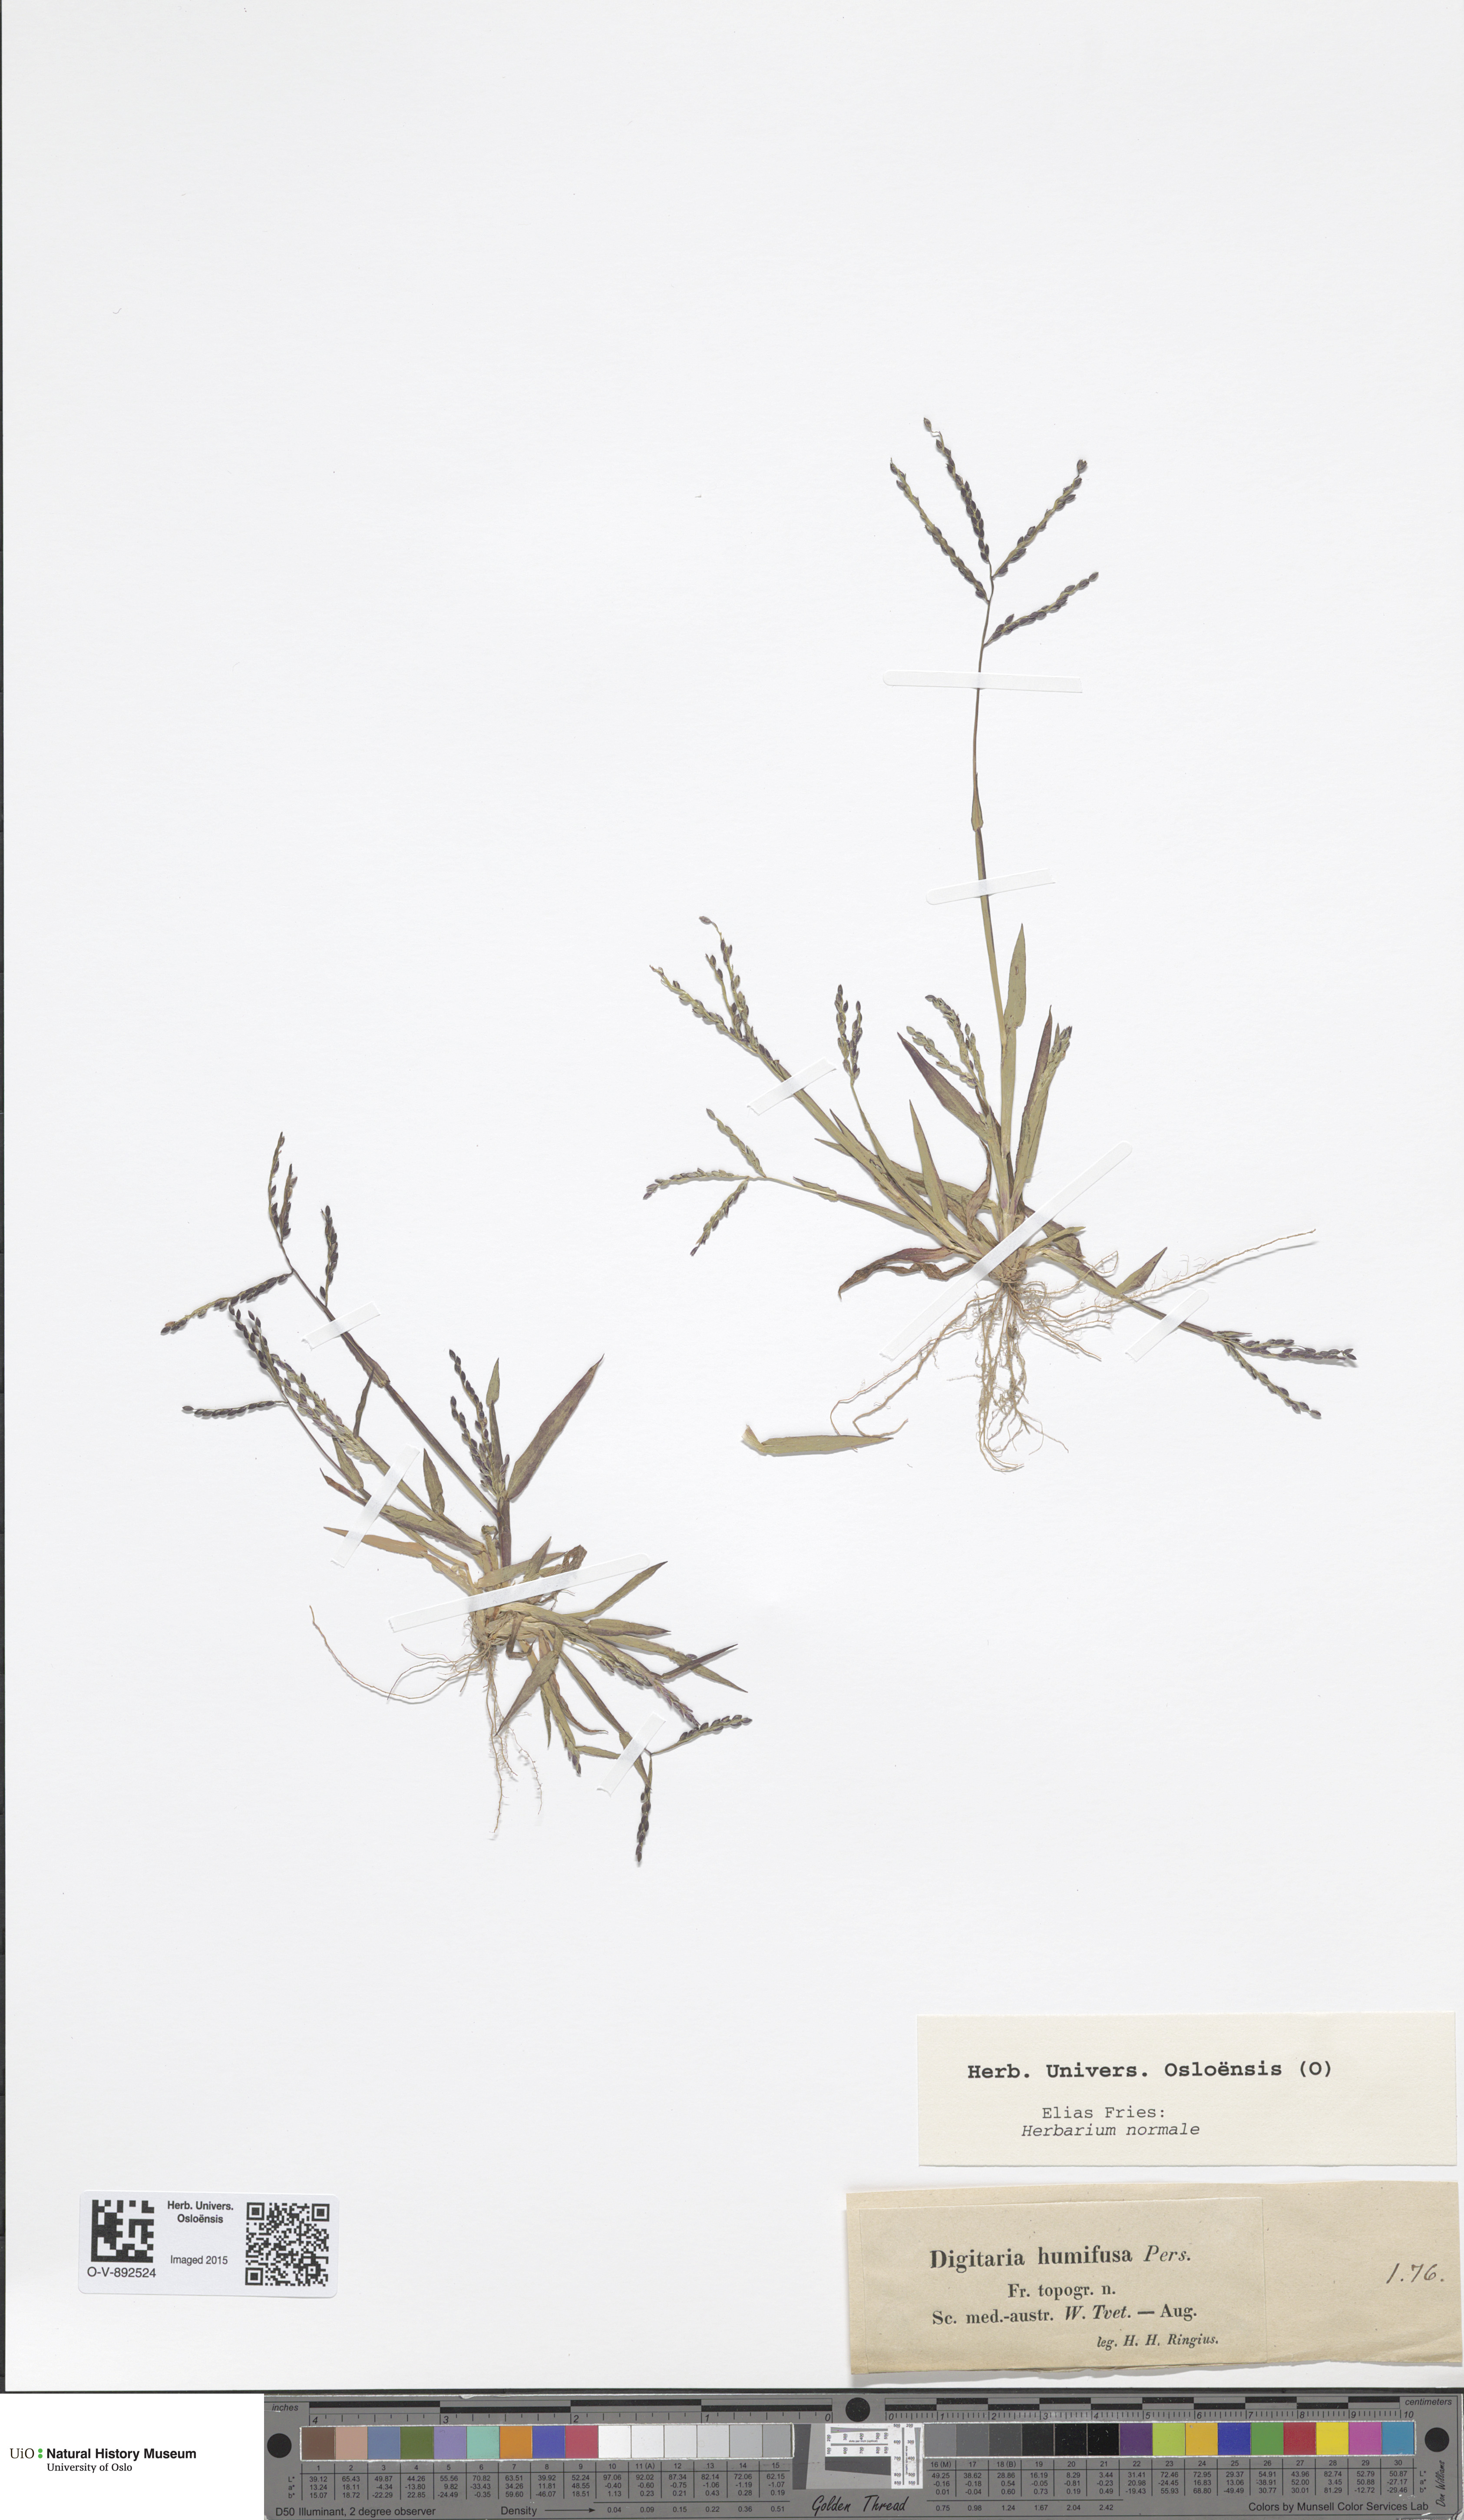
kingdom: Plantae
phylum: Tracheophyta
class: Liliopsida
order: Poales
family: Poaceae
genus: Digitaria
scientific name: Digitaria ischaemum
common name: Smooth crabgrass
